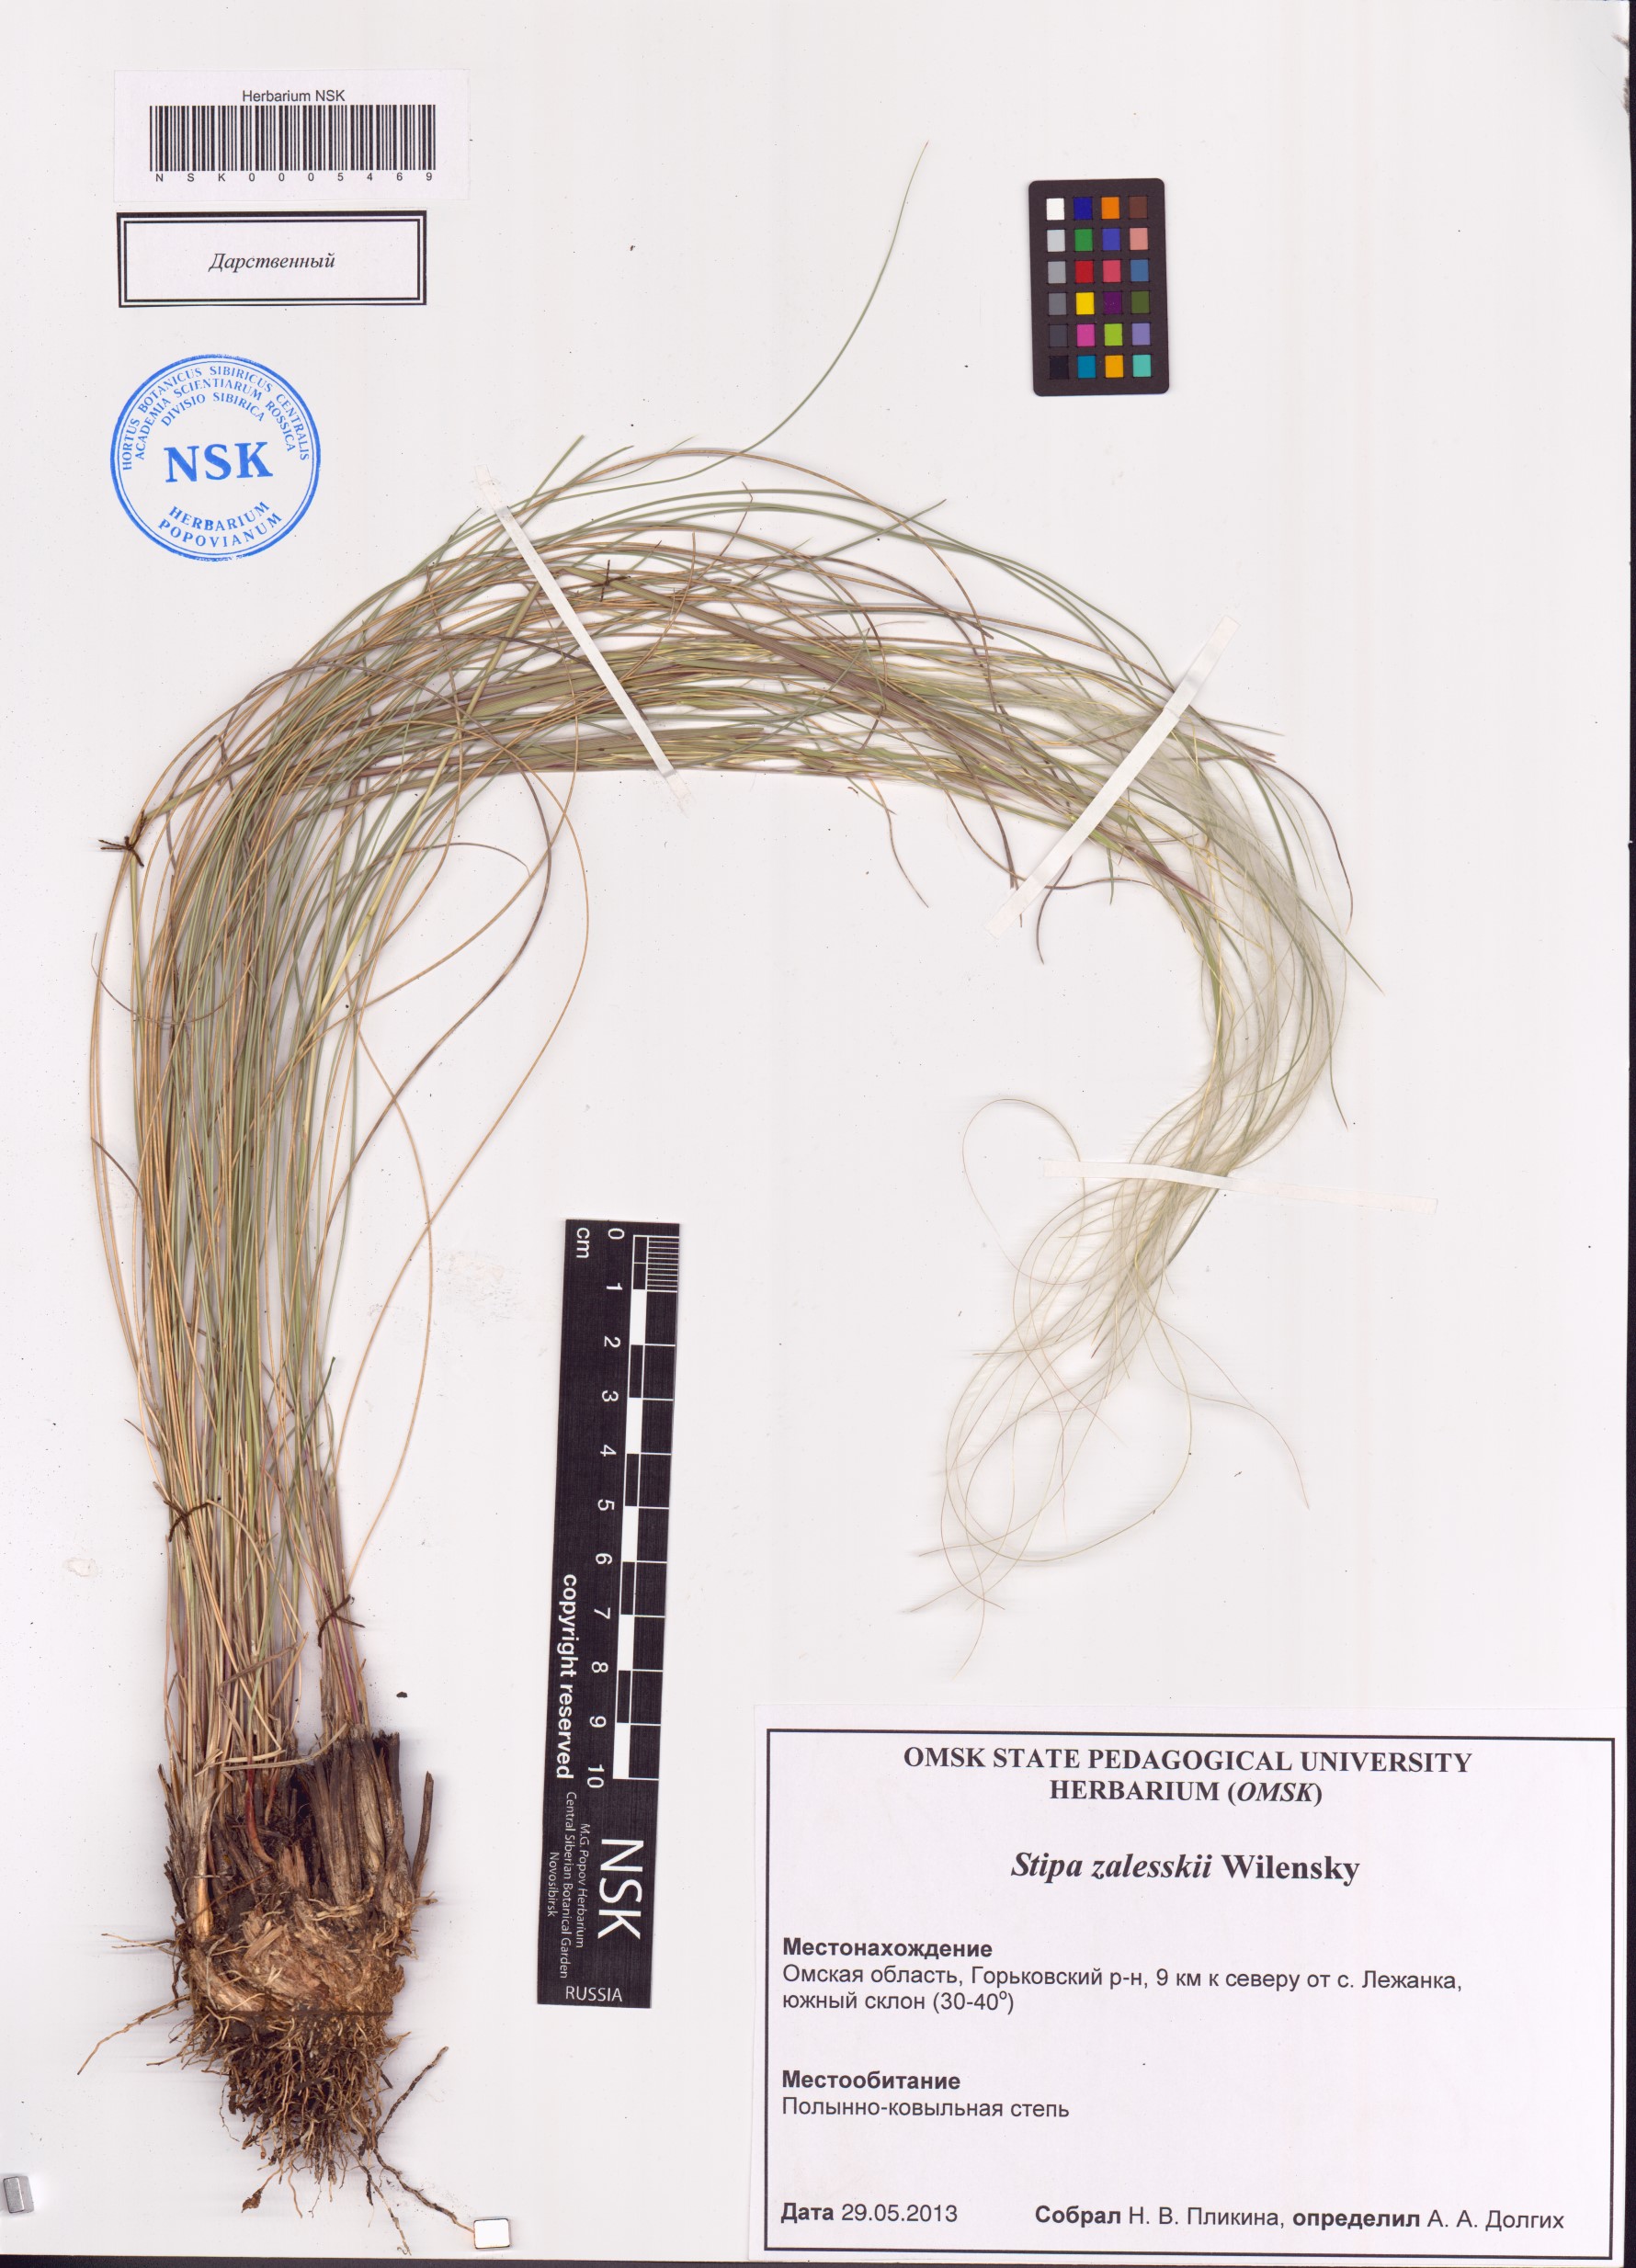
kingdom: Plantae
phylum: Tracheophyta
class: Liliopsida
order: Poales
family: Poaceae
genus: Stipa
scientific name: Stipa zalesskii
